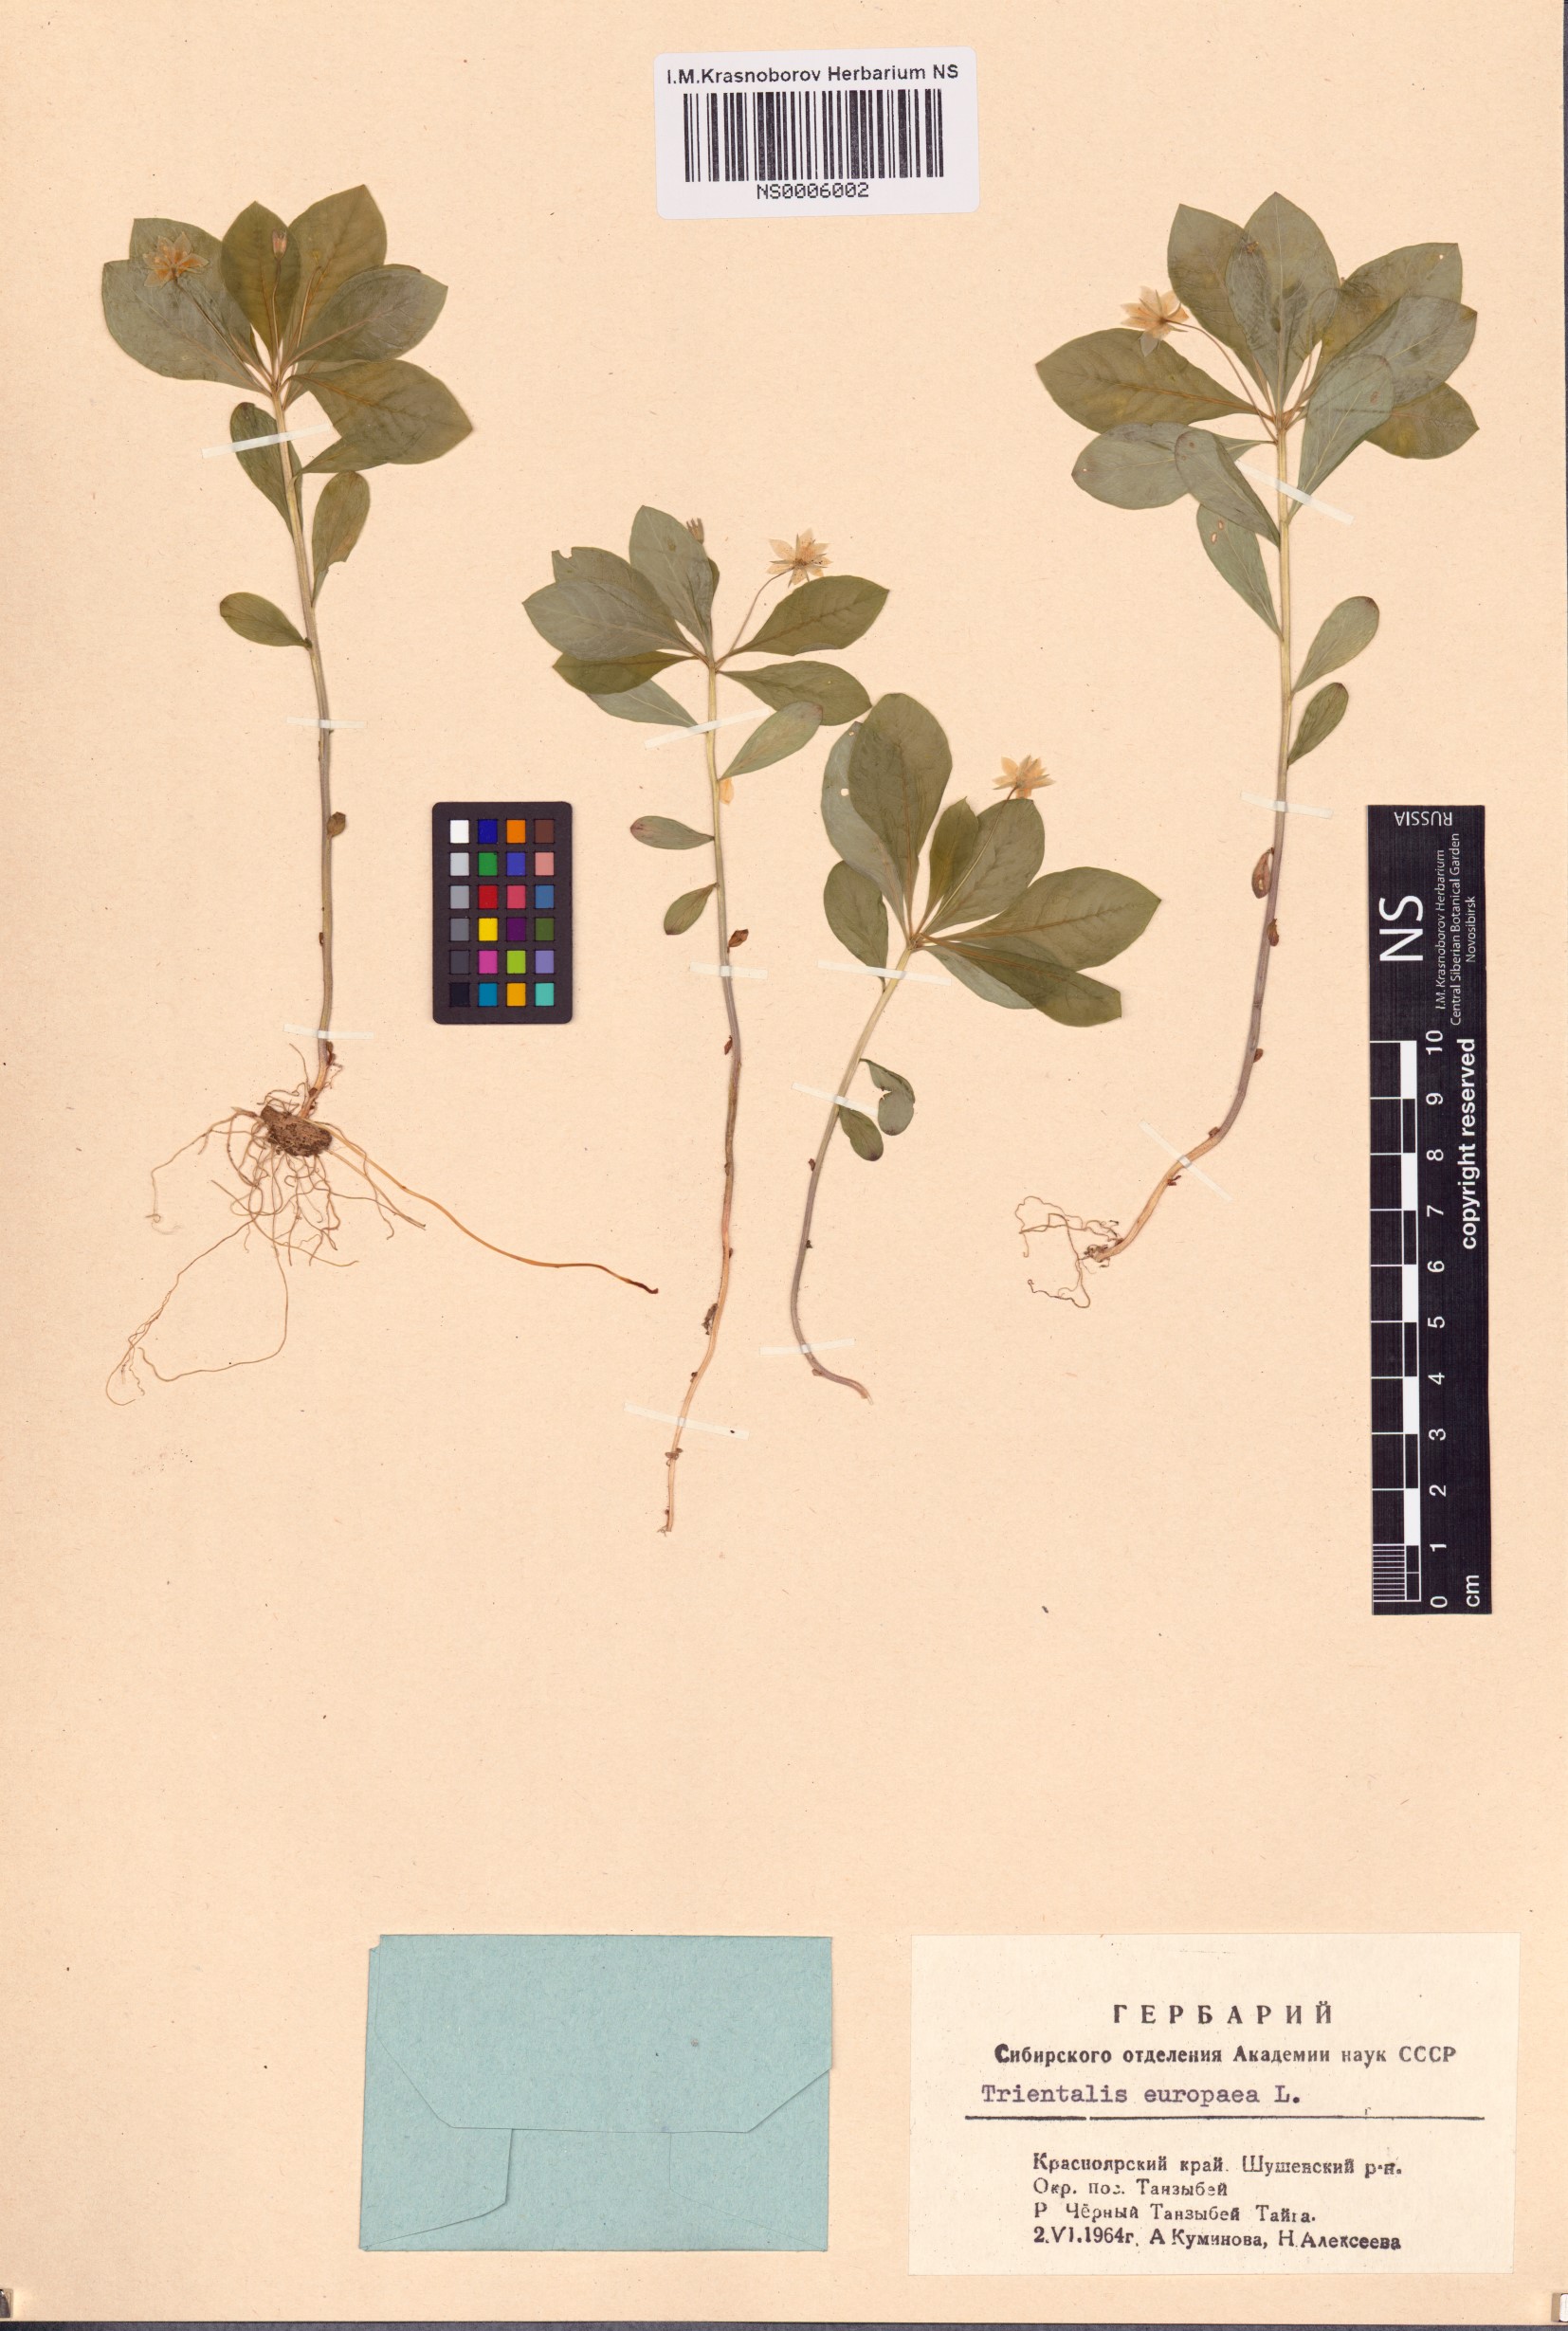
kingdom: Plantae
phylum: Tracheophyta
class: Magnoliopsida
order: Ericales
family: Primulaceae
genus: Lysimachia
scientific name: Lysimachia europaea
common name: Arctic starflower
